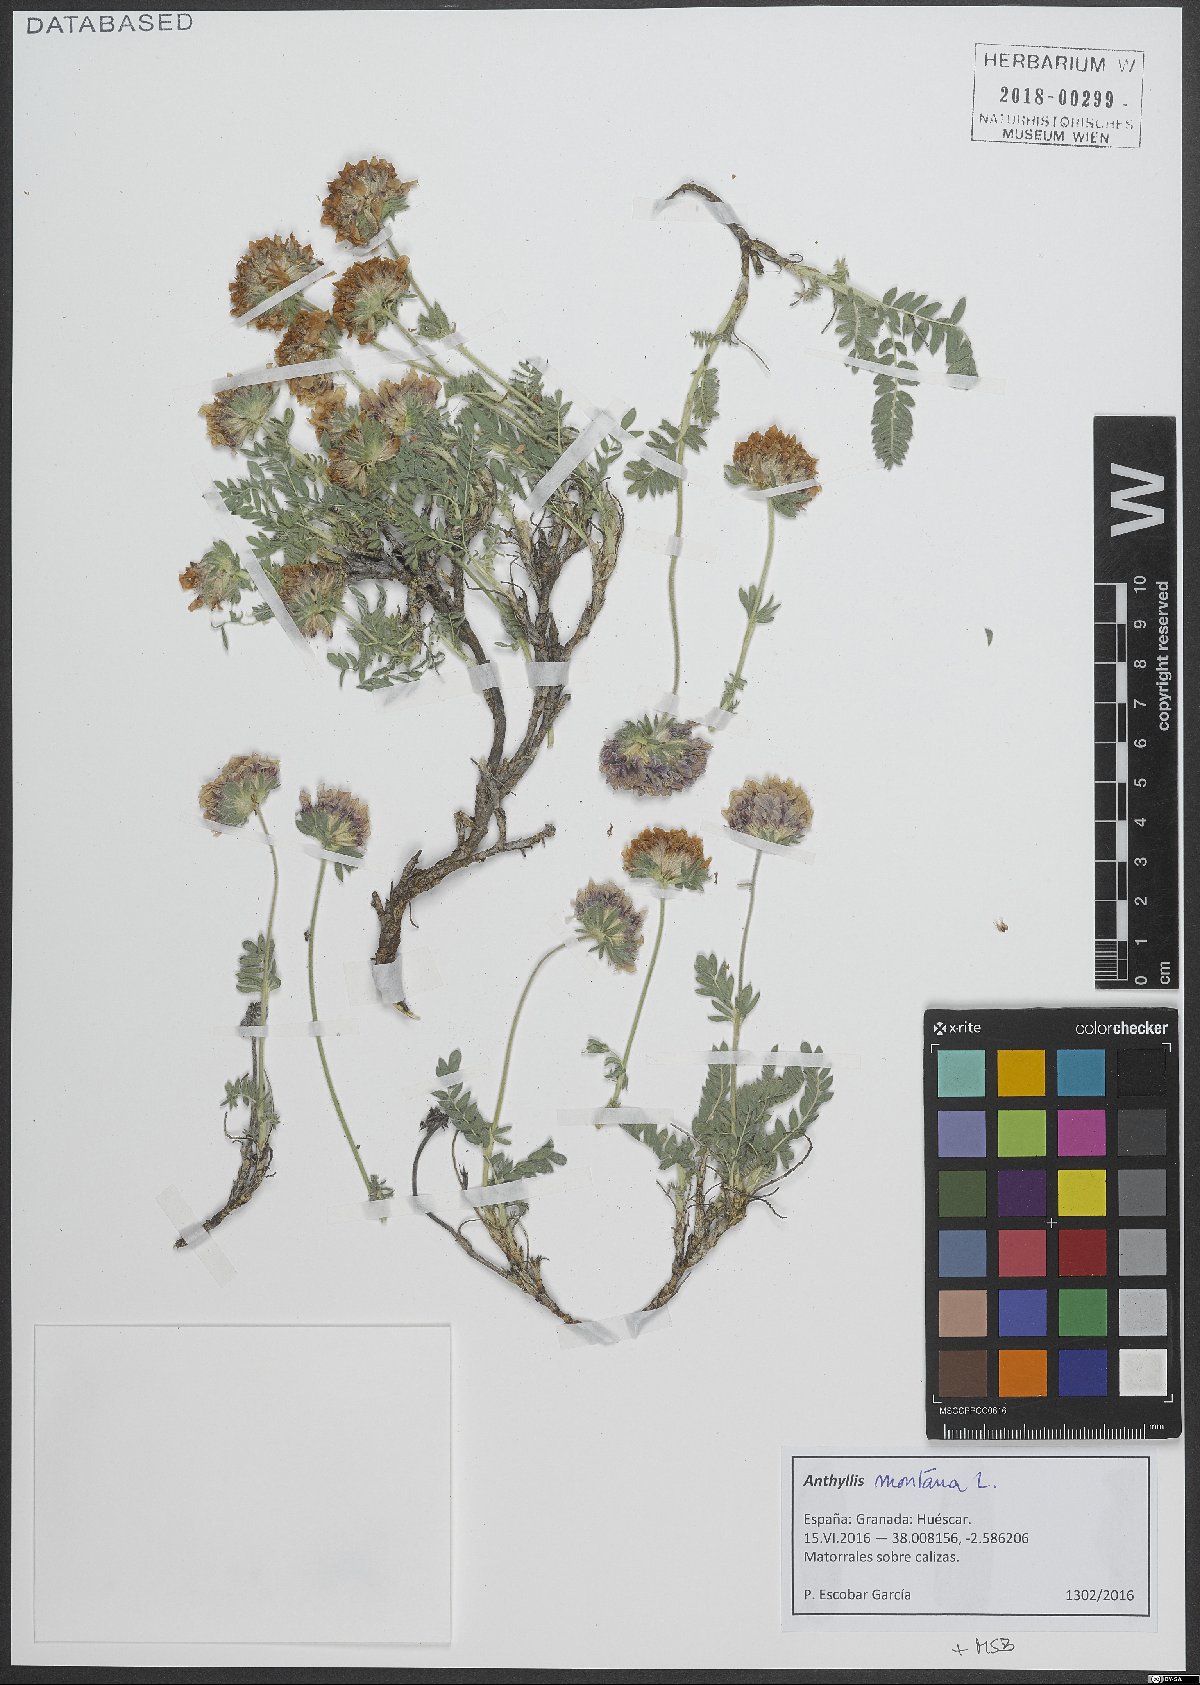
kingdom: Plantae
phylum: Tracheophyta
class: Magnoliopsida
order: Fabales
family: Fabaceae
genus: Anthyllis
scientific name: Anthyllis montana
